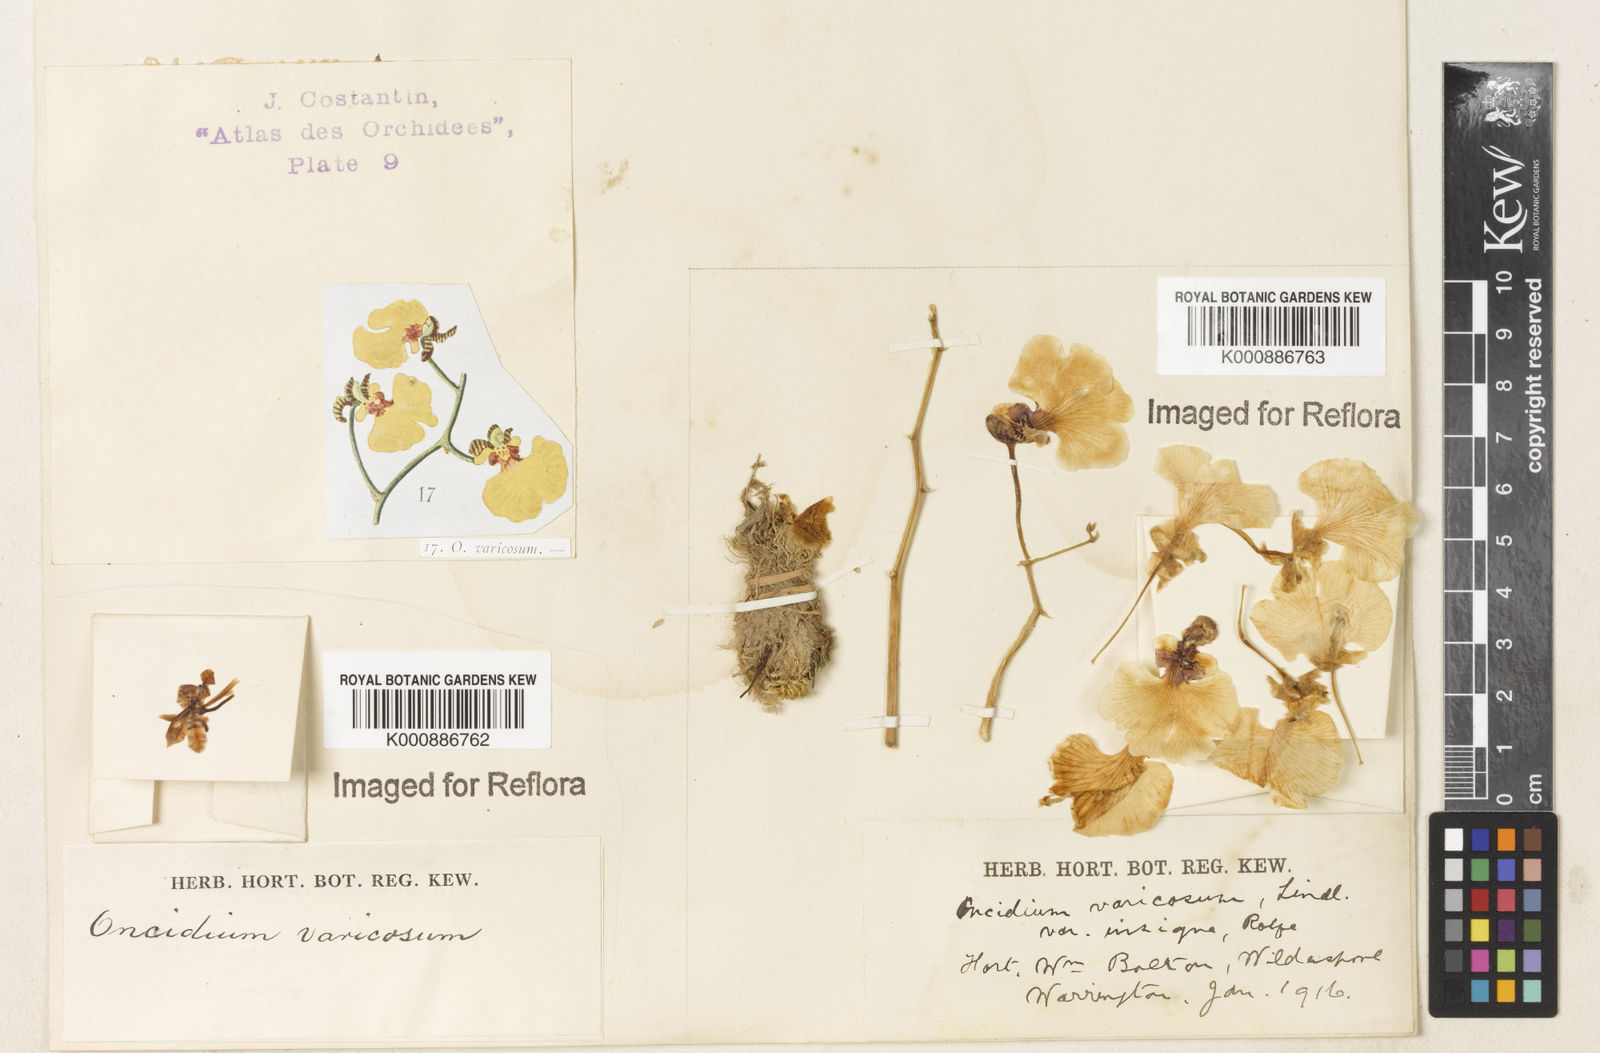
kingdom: Plantae
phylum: Tracheophyta
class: Liliopsida
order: Asparagales
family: Orchidaceae
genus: Gomesa
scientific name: Gomesa varicosa
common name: Dancing ladies
